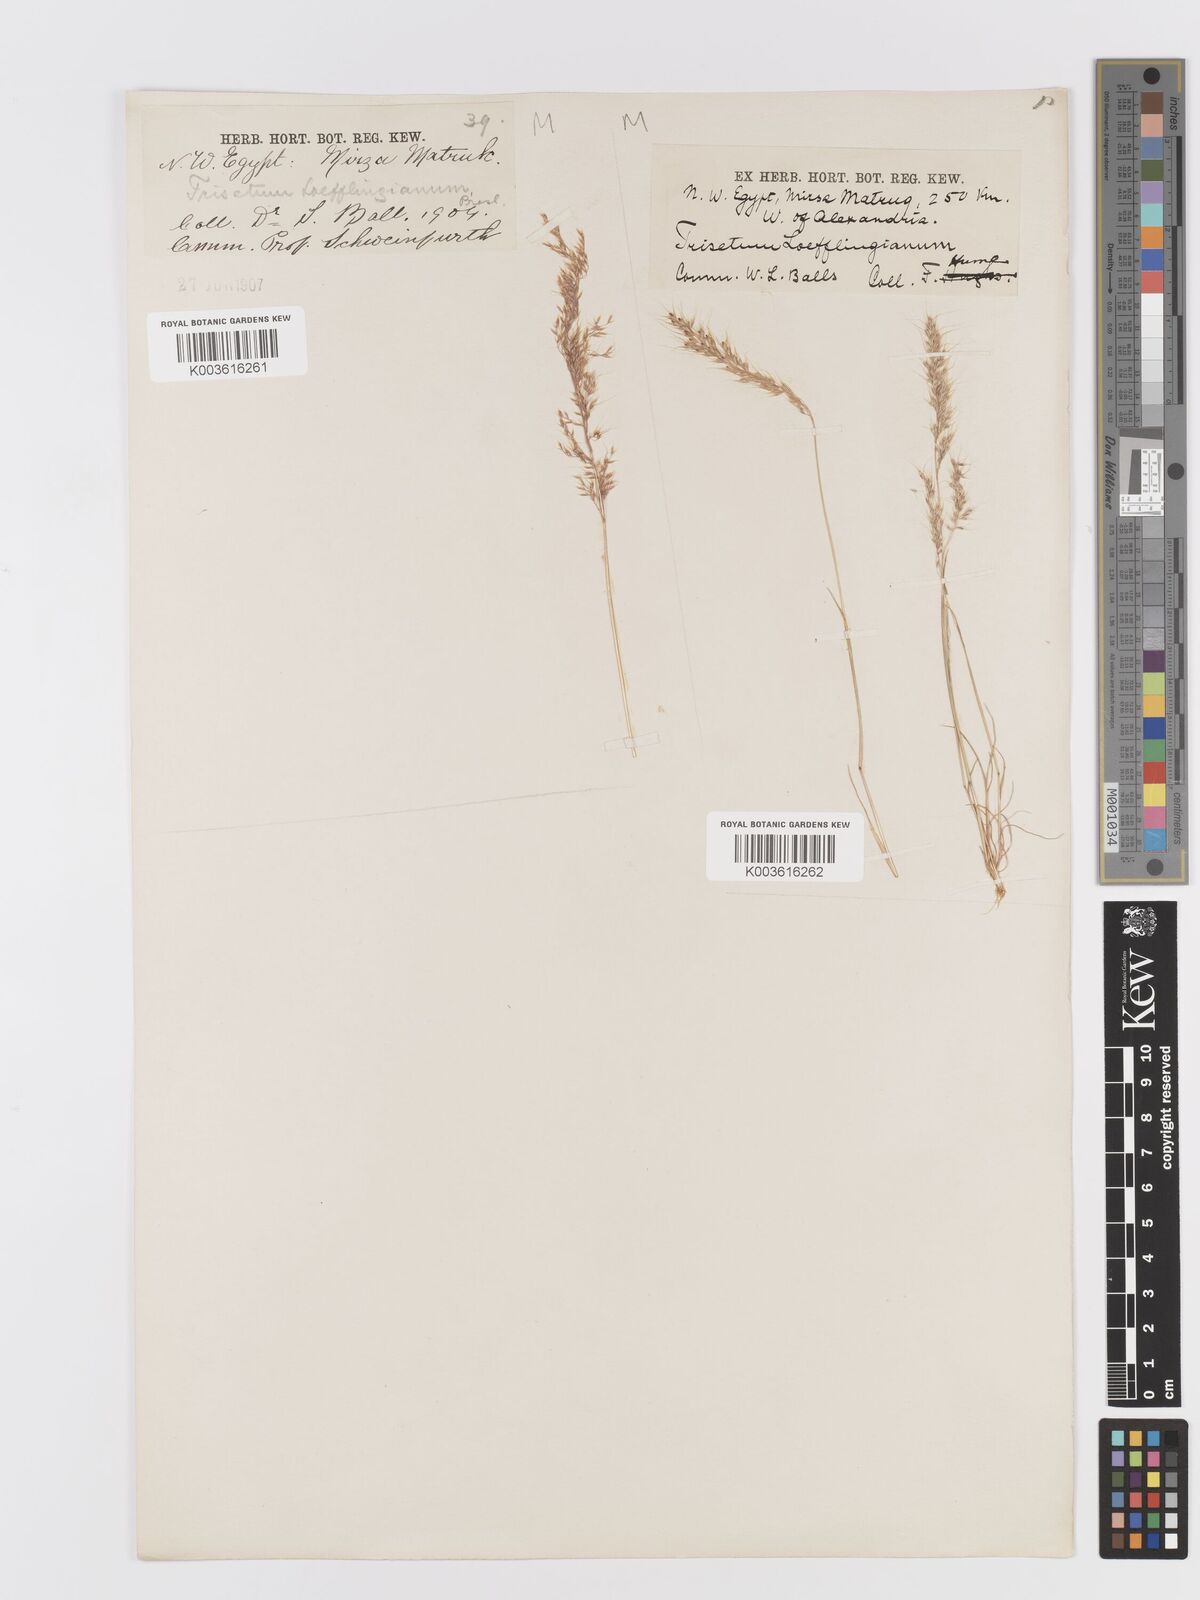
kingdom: Plantae
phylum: Tracheophyta
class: Liliopsida
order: Poales
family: Poaceae
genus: Trisetaria
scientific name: Trisetaria macrochaeta
